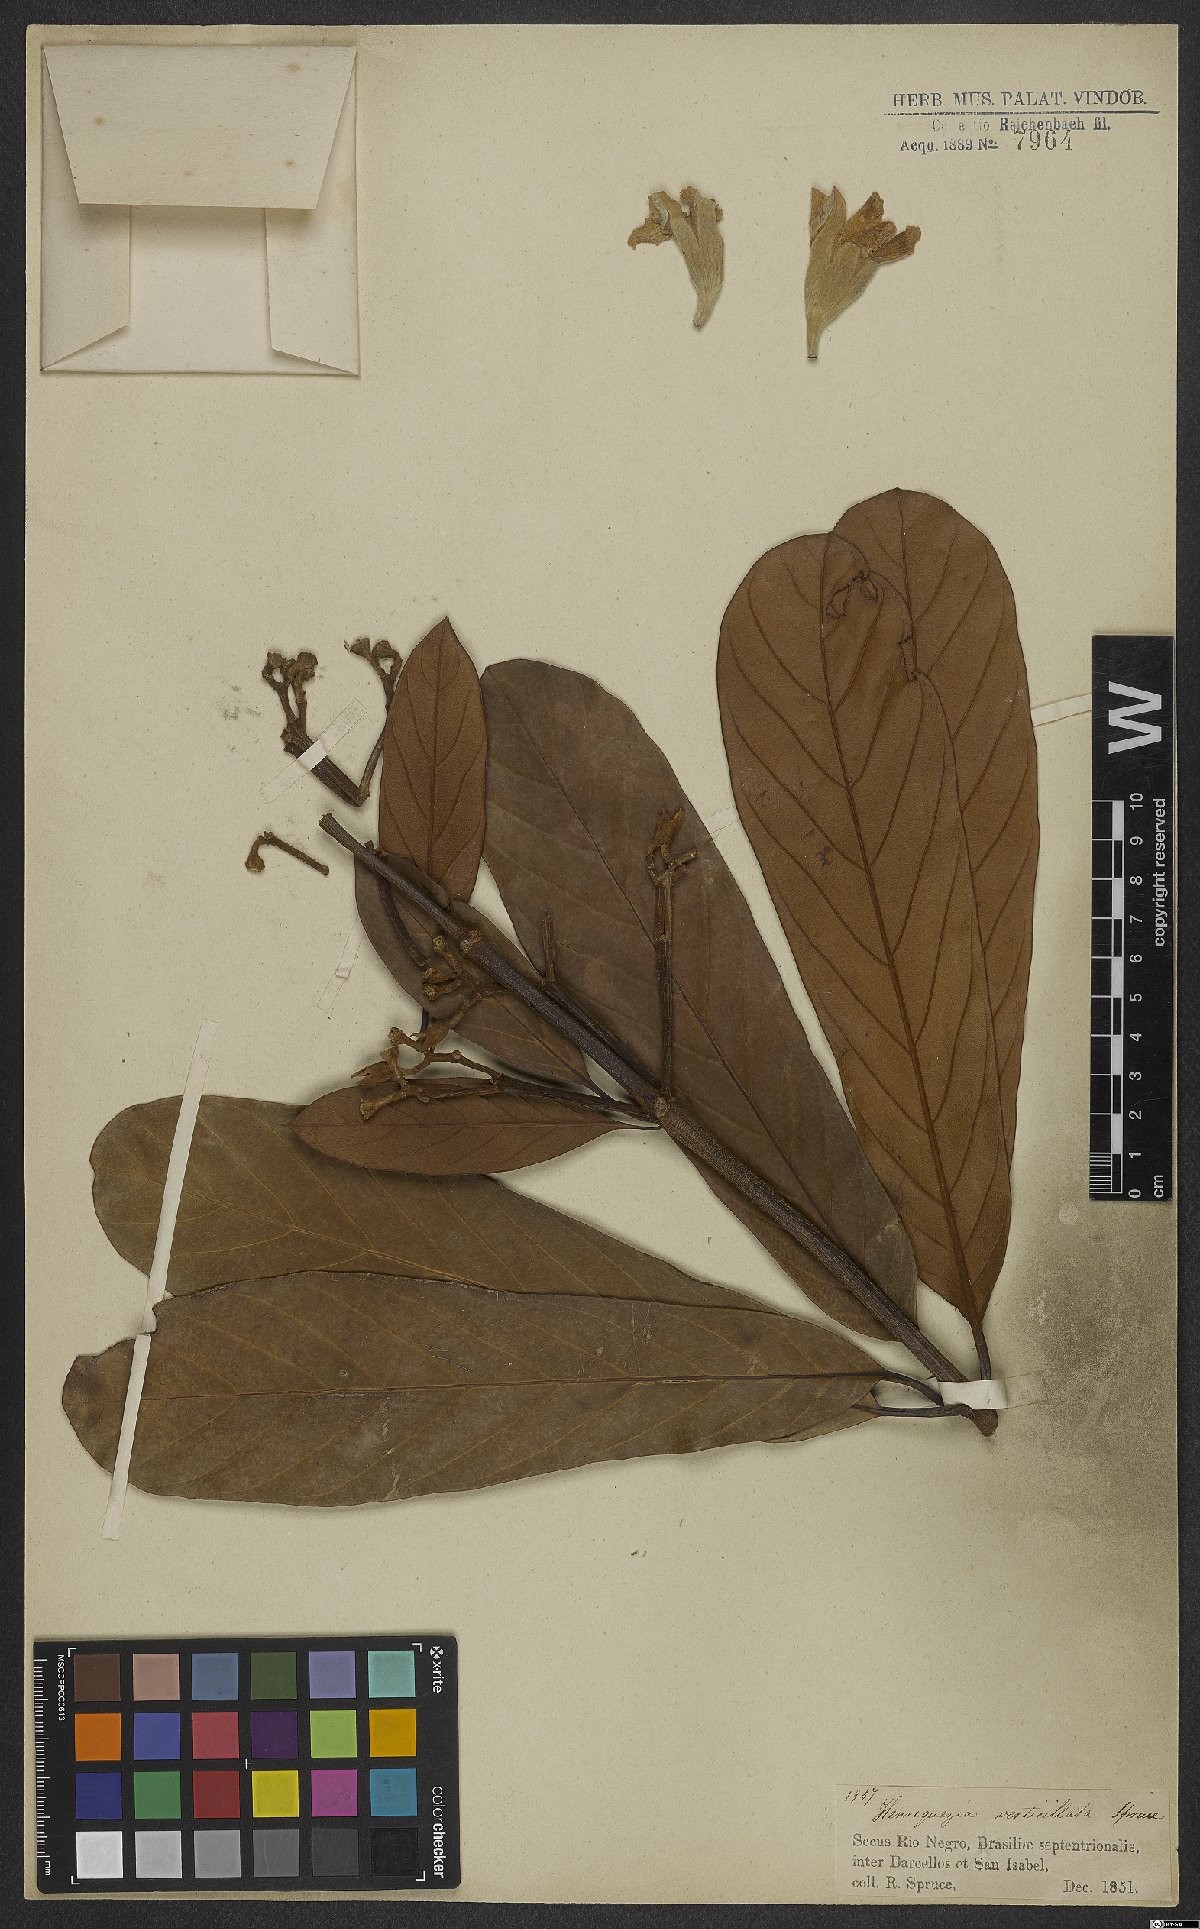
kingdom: Plantae
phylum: Tracheophyta
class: Magnoliopsida
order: Gentianales
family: Rubiaceae
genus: Henriquezia
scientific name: Henriquezia verticillata
